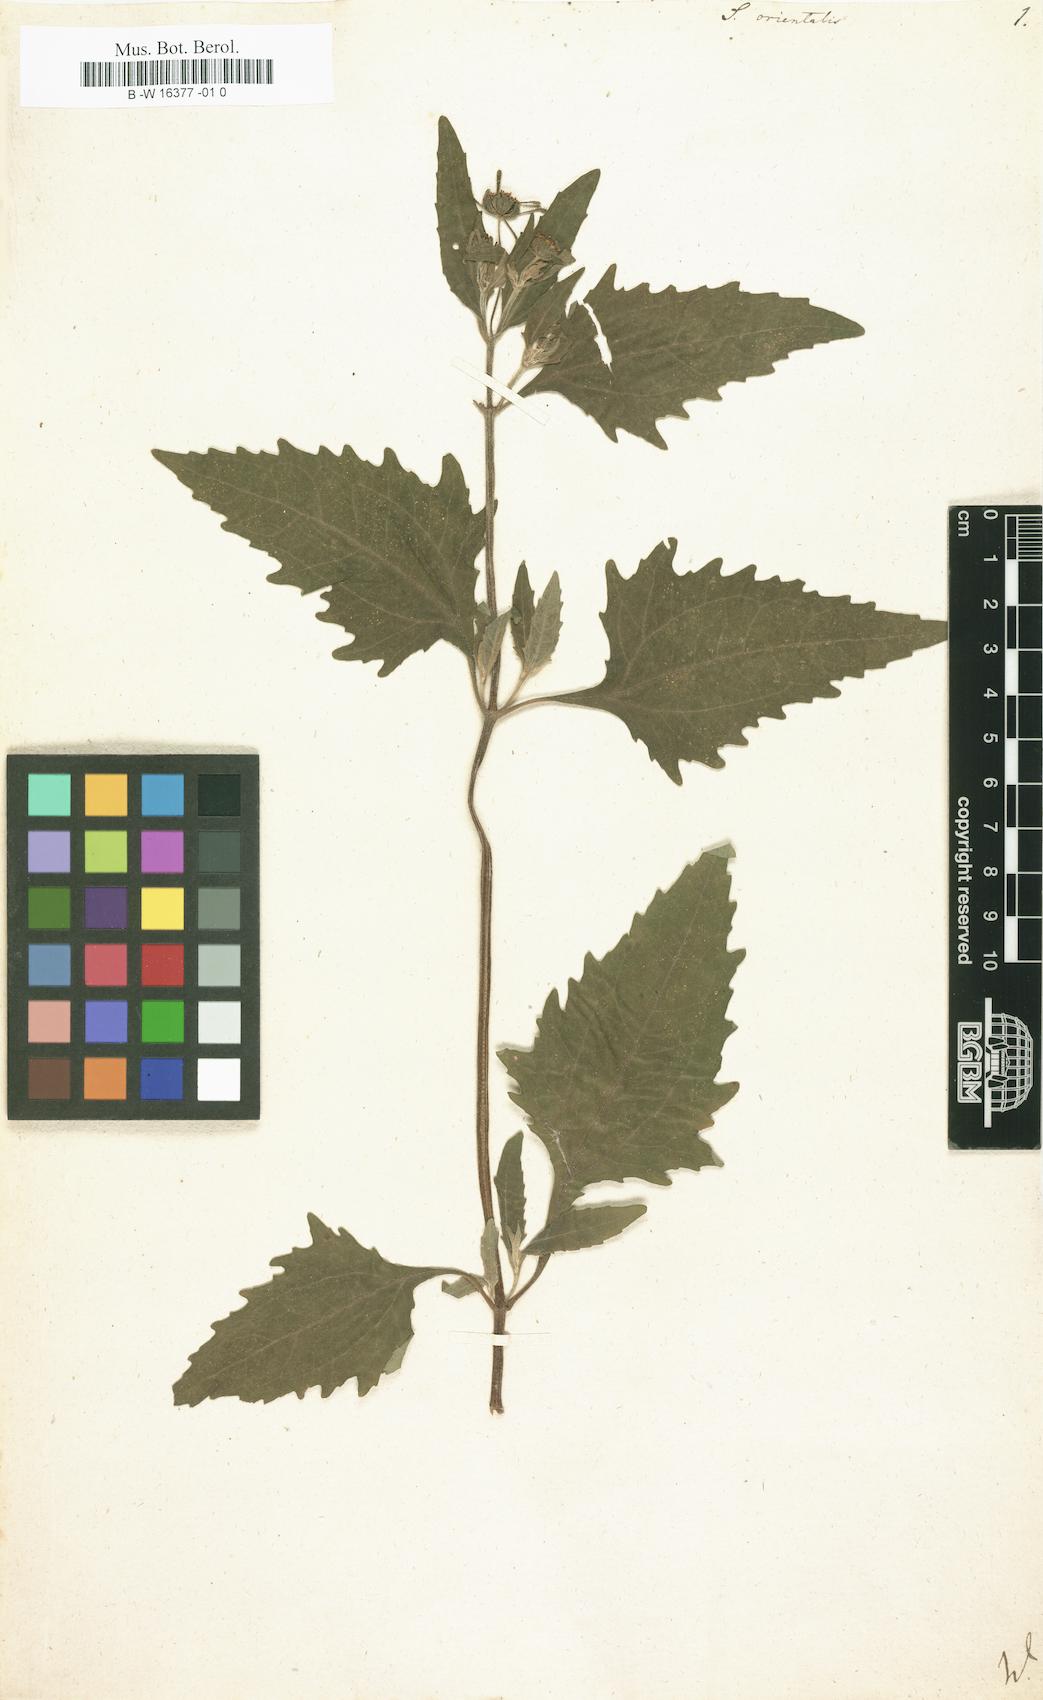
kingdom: Plantae
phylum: Tracheophyta
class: Magnoliopsida
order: Asterales
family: Asteraceae
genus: Sigesbeckia
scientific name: Sigesbeckia orientalis
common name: Eastern st paul's-wort
